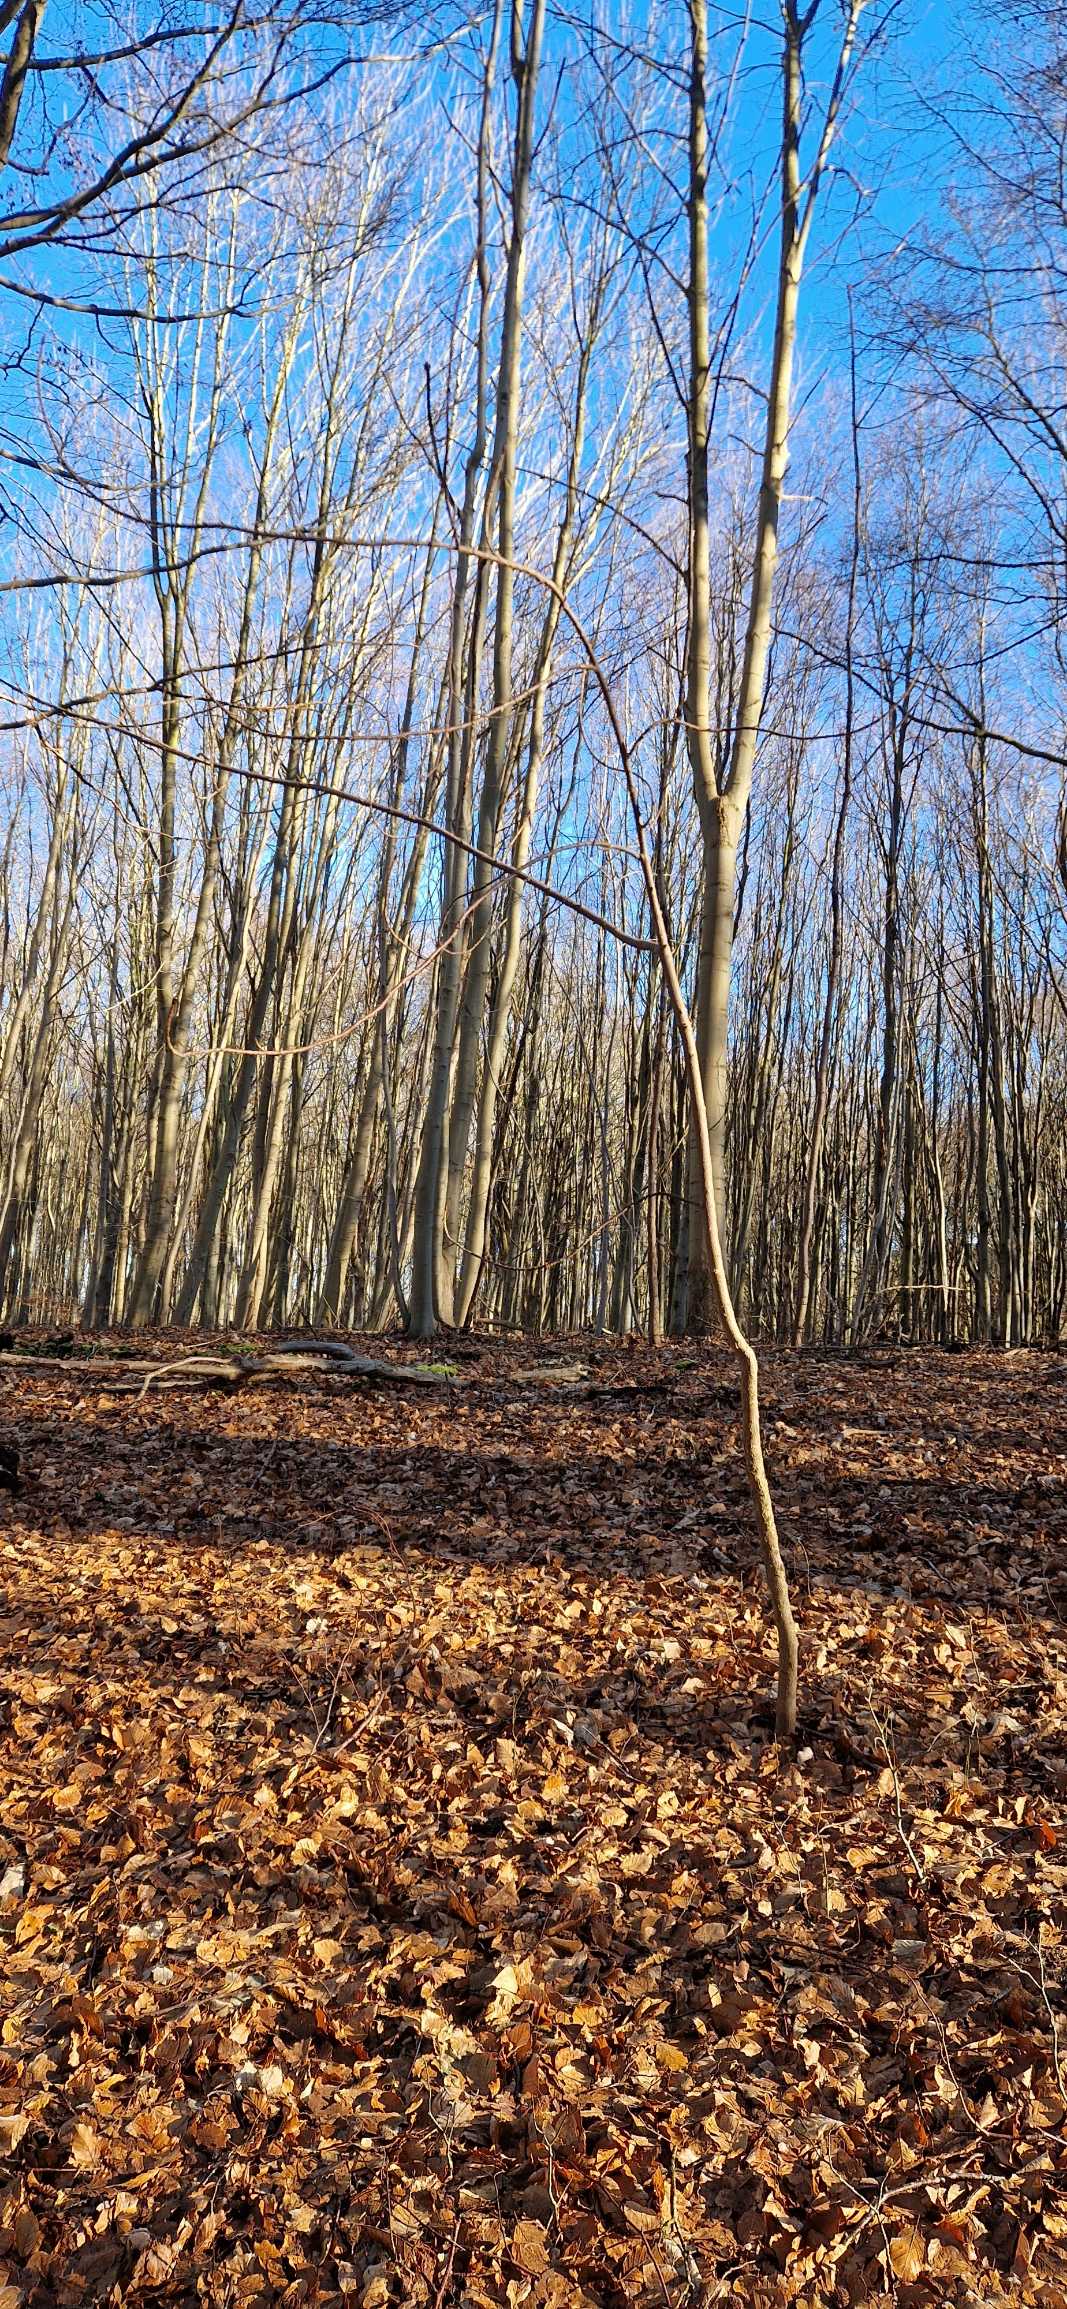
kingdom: Plantae
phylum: Tracheophyta
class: Magnoliopsida
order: Sapindales
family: Sapindaceae
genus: Aesculus
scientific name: Aesculus hippocastanum
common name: Hestekastanie
